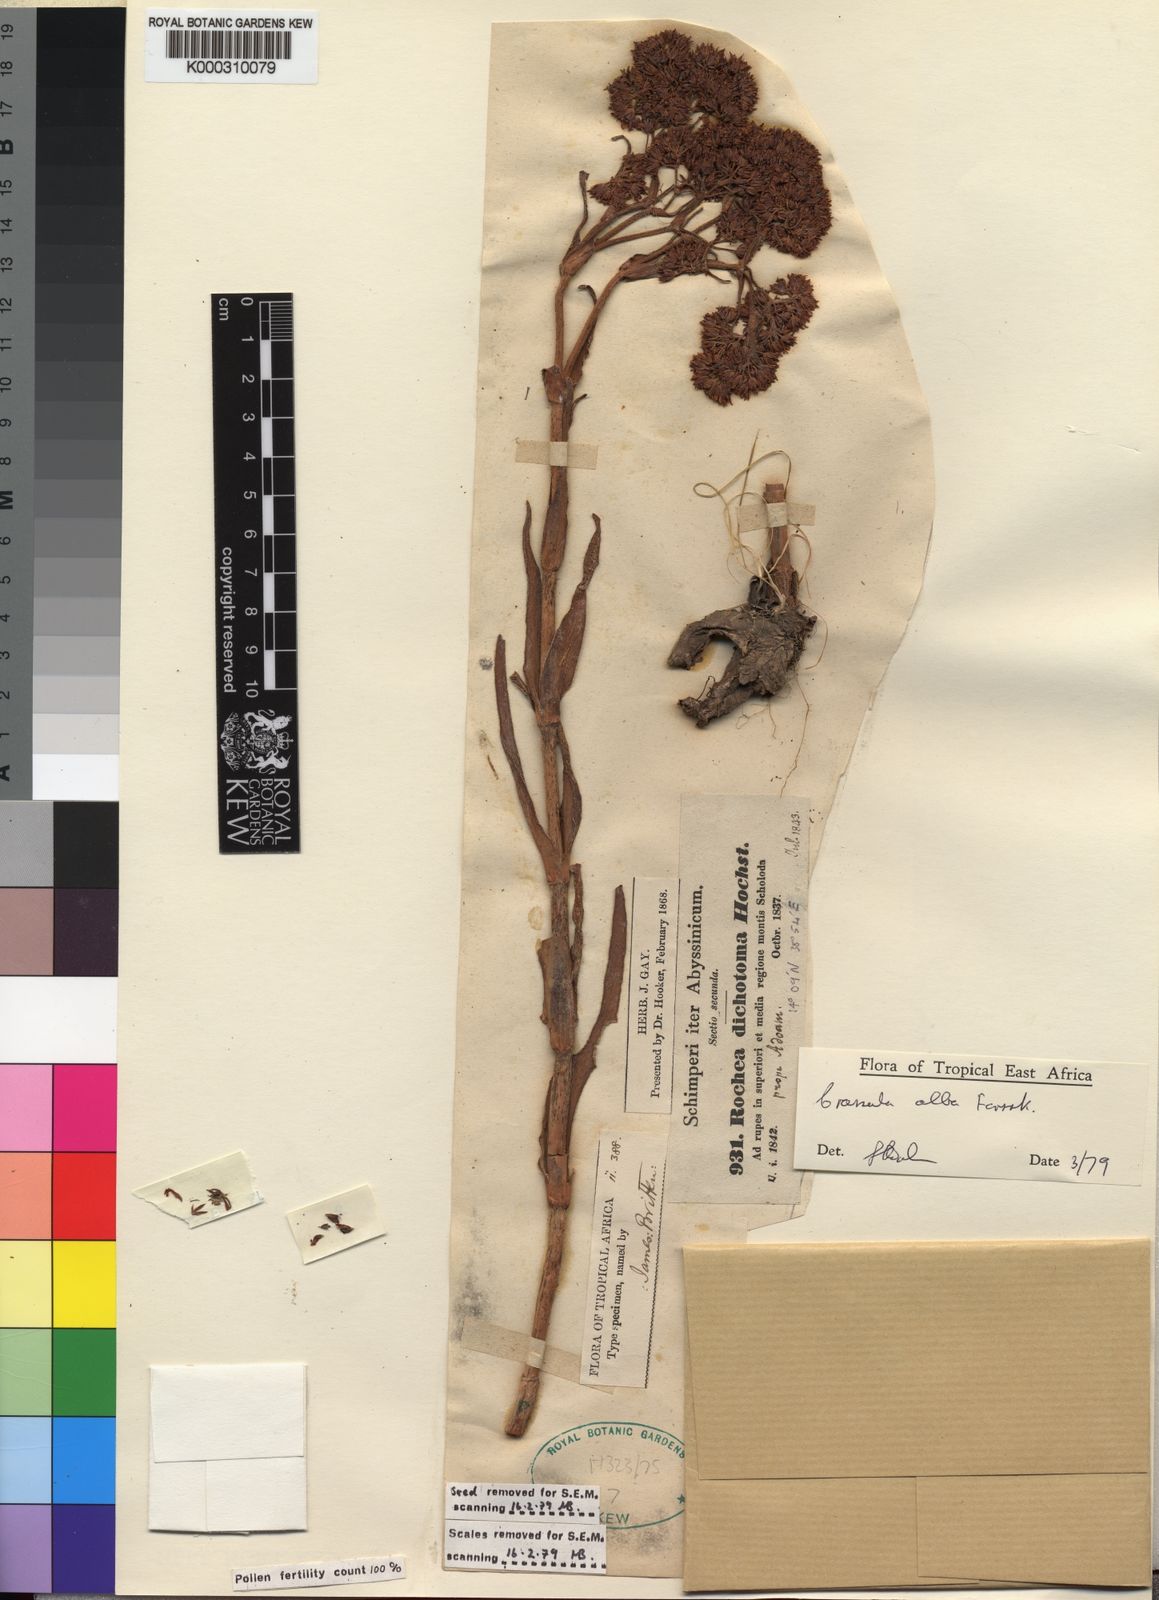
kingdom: Plantae
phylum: Tracheophyta
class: Magnoliopsida
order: Saxifragales
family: Crassulaceae
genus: Crassula
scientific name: Crassula alba
